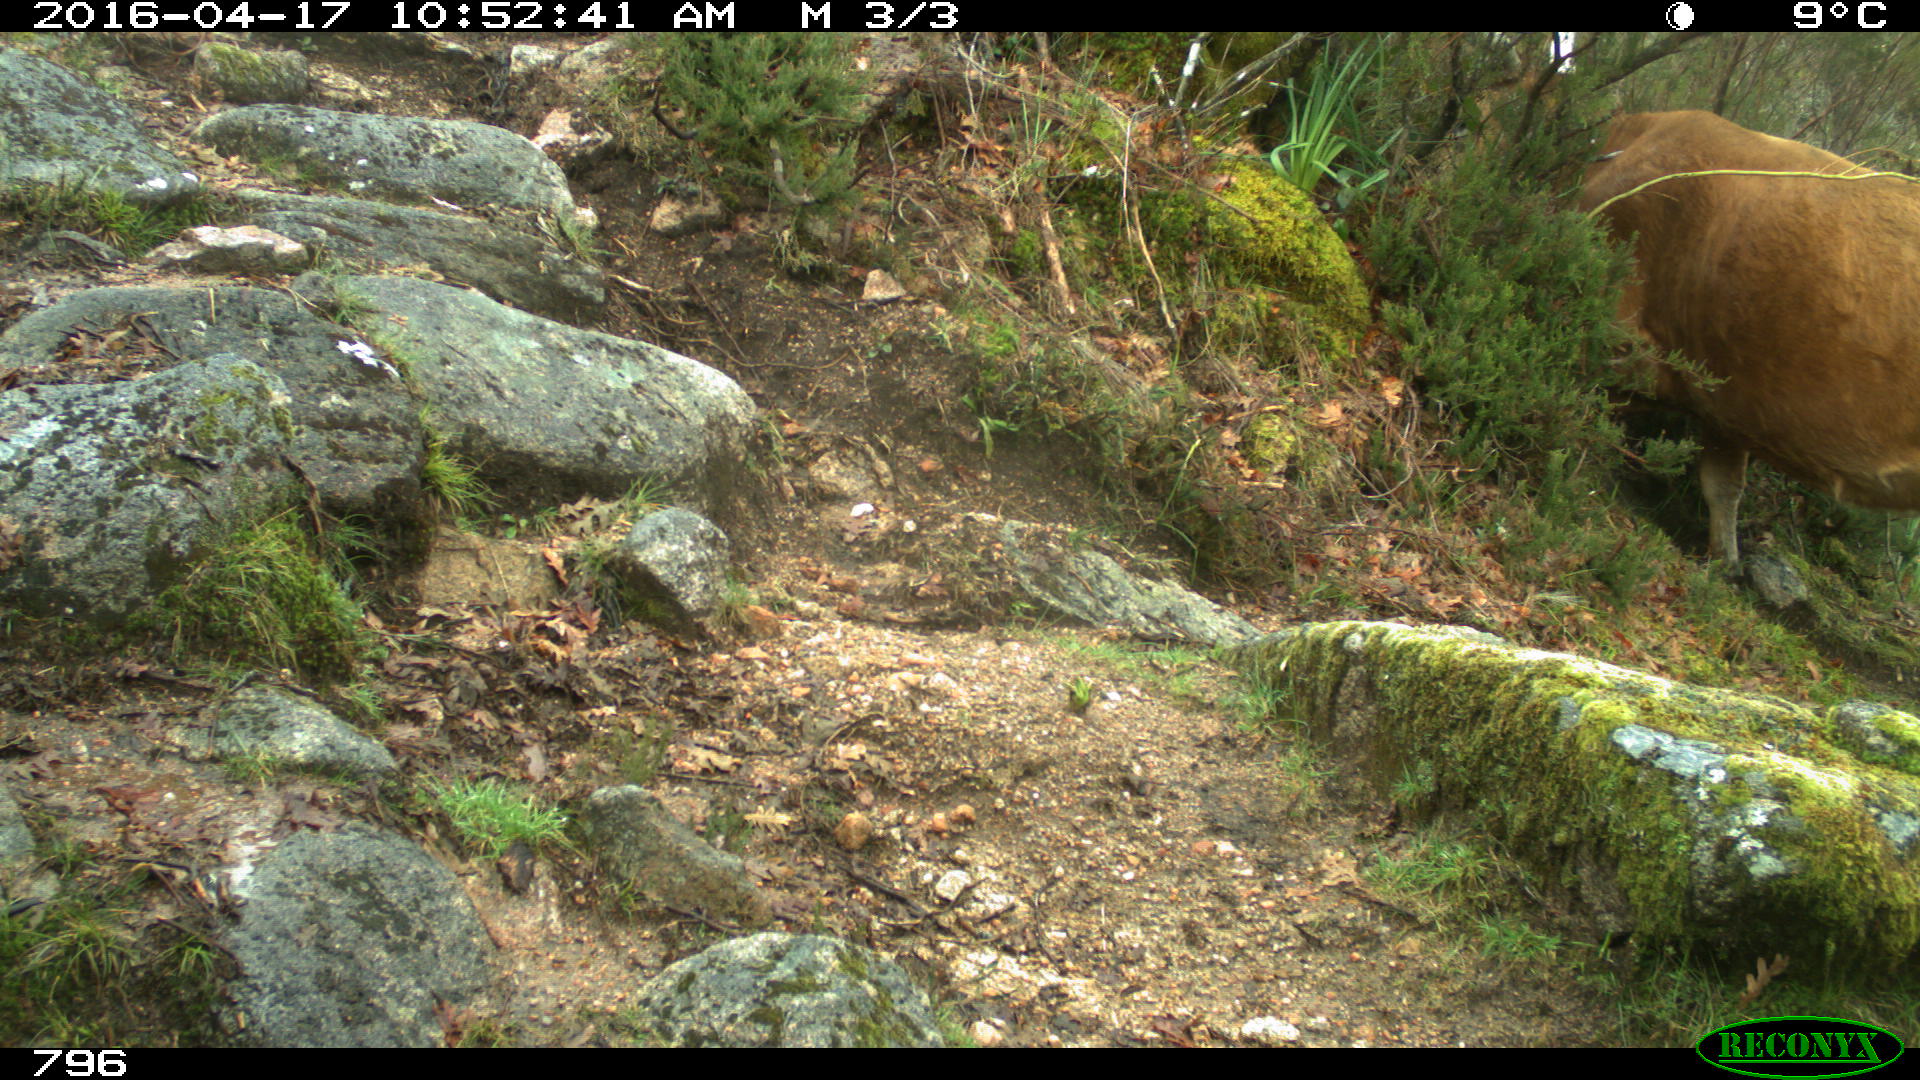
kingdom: Animalia
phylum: Chordata
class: Mammalia
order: Artiodactyla
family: Bovidae
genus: Bos
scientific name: Bos taurus
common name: Domesticated cattle
